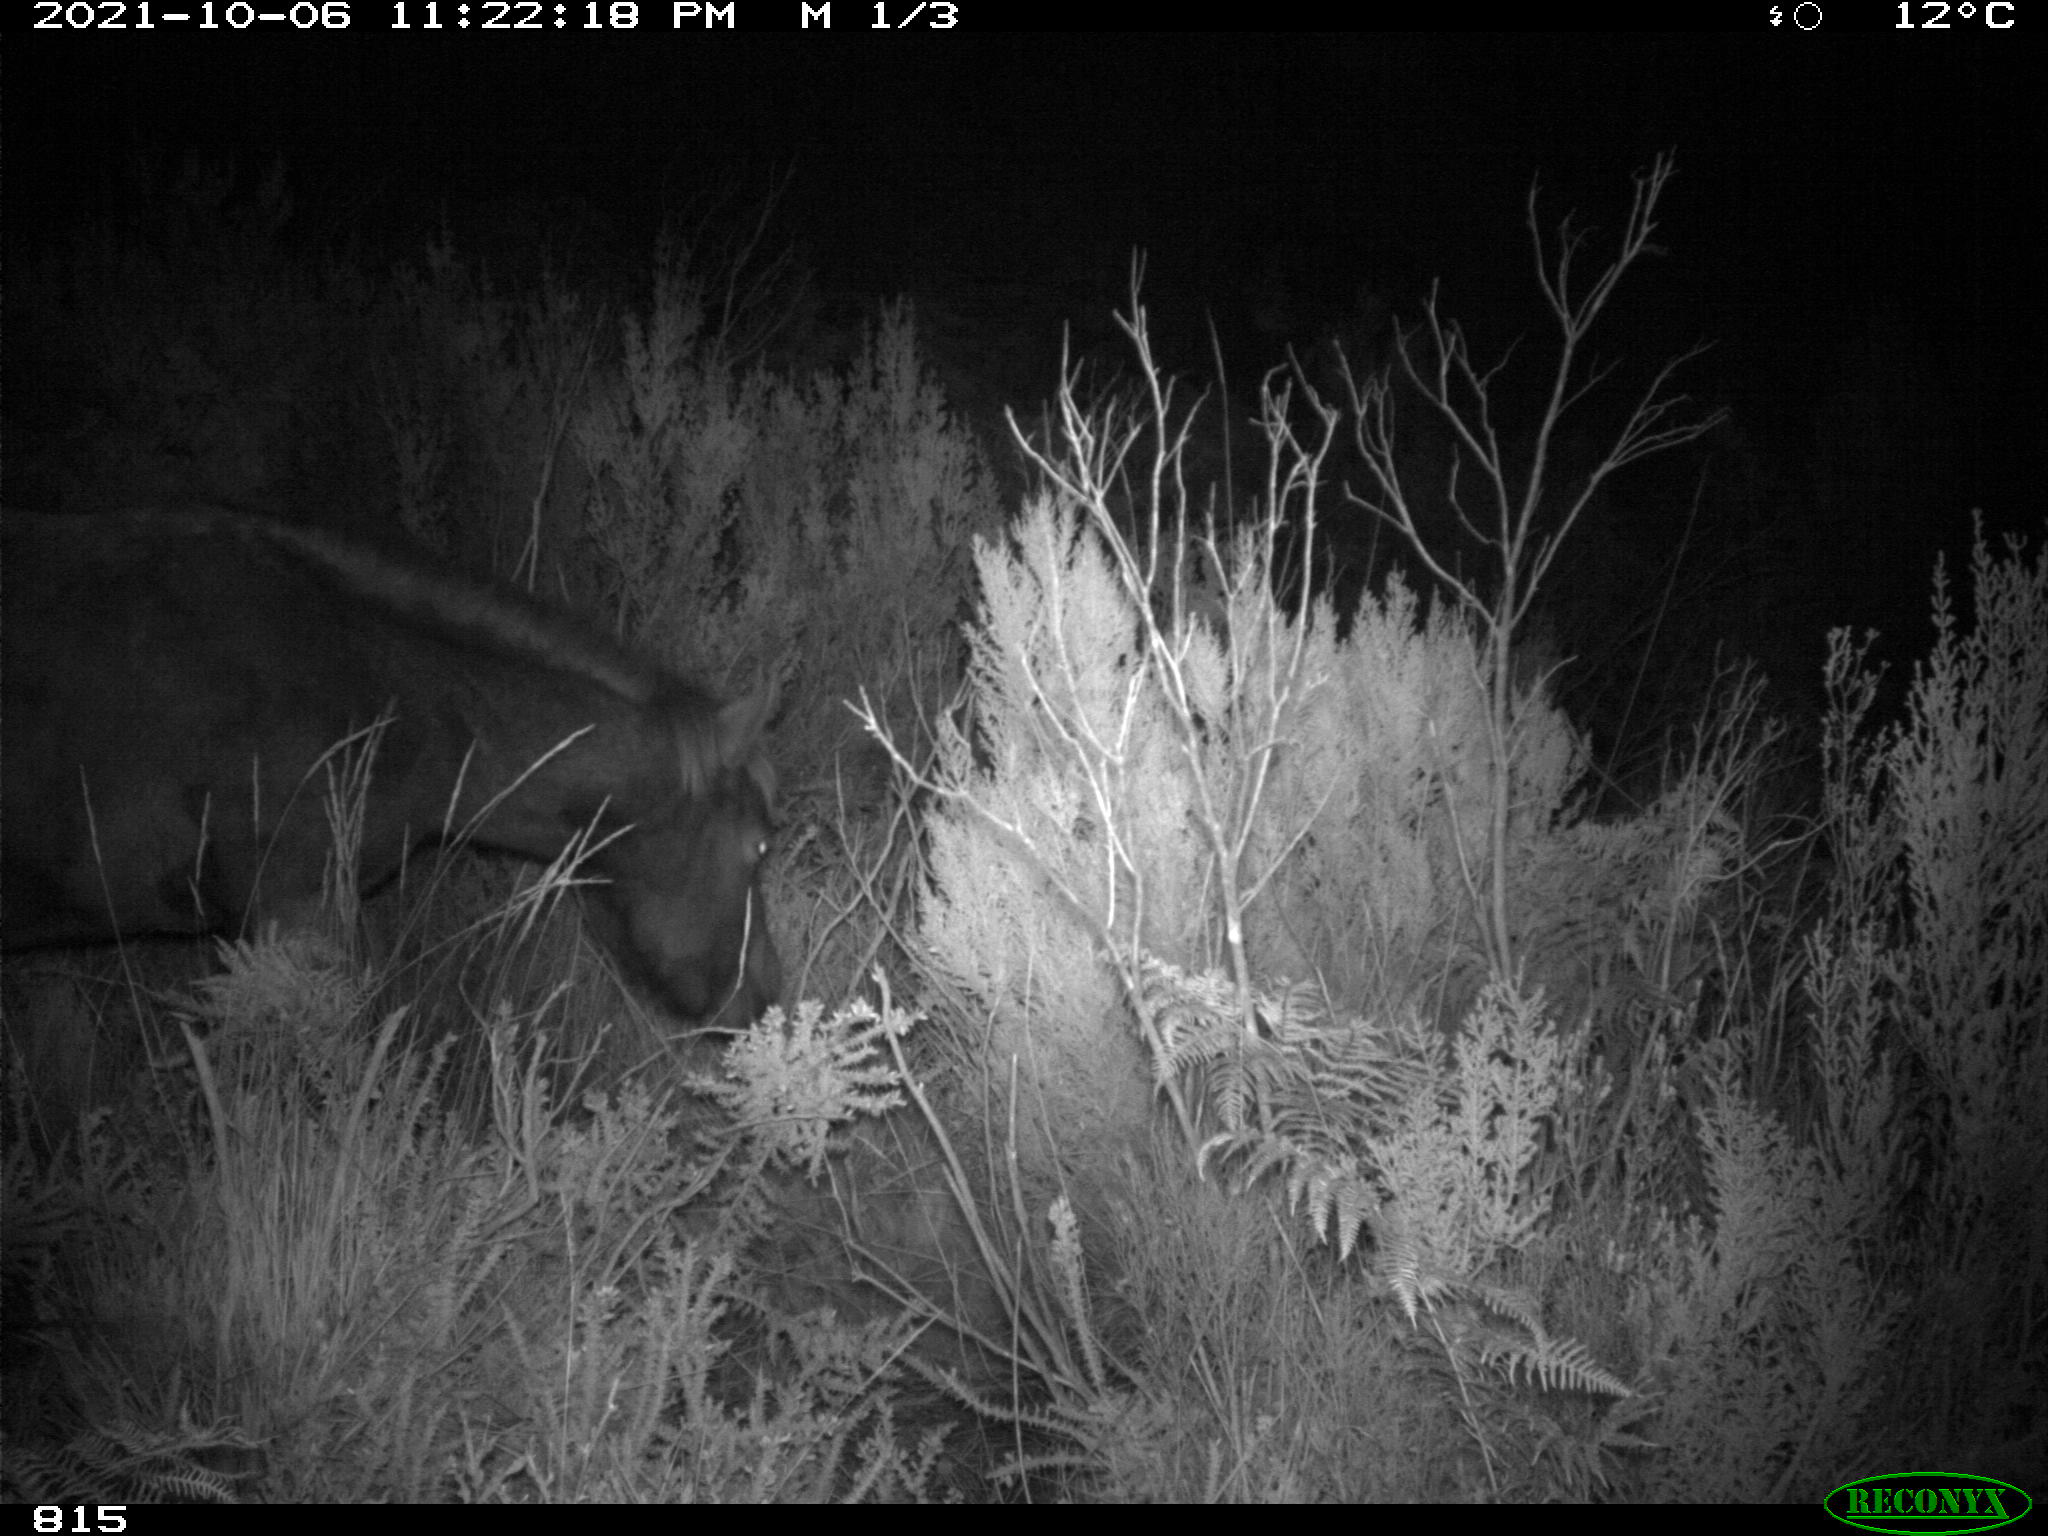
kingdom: Animalia
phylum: Chordata
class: Mammalia
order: Perissodactyla
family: Equidae
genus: Equus
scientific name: Equus caballus
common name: Horse
